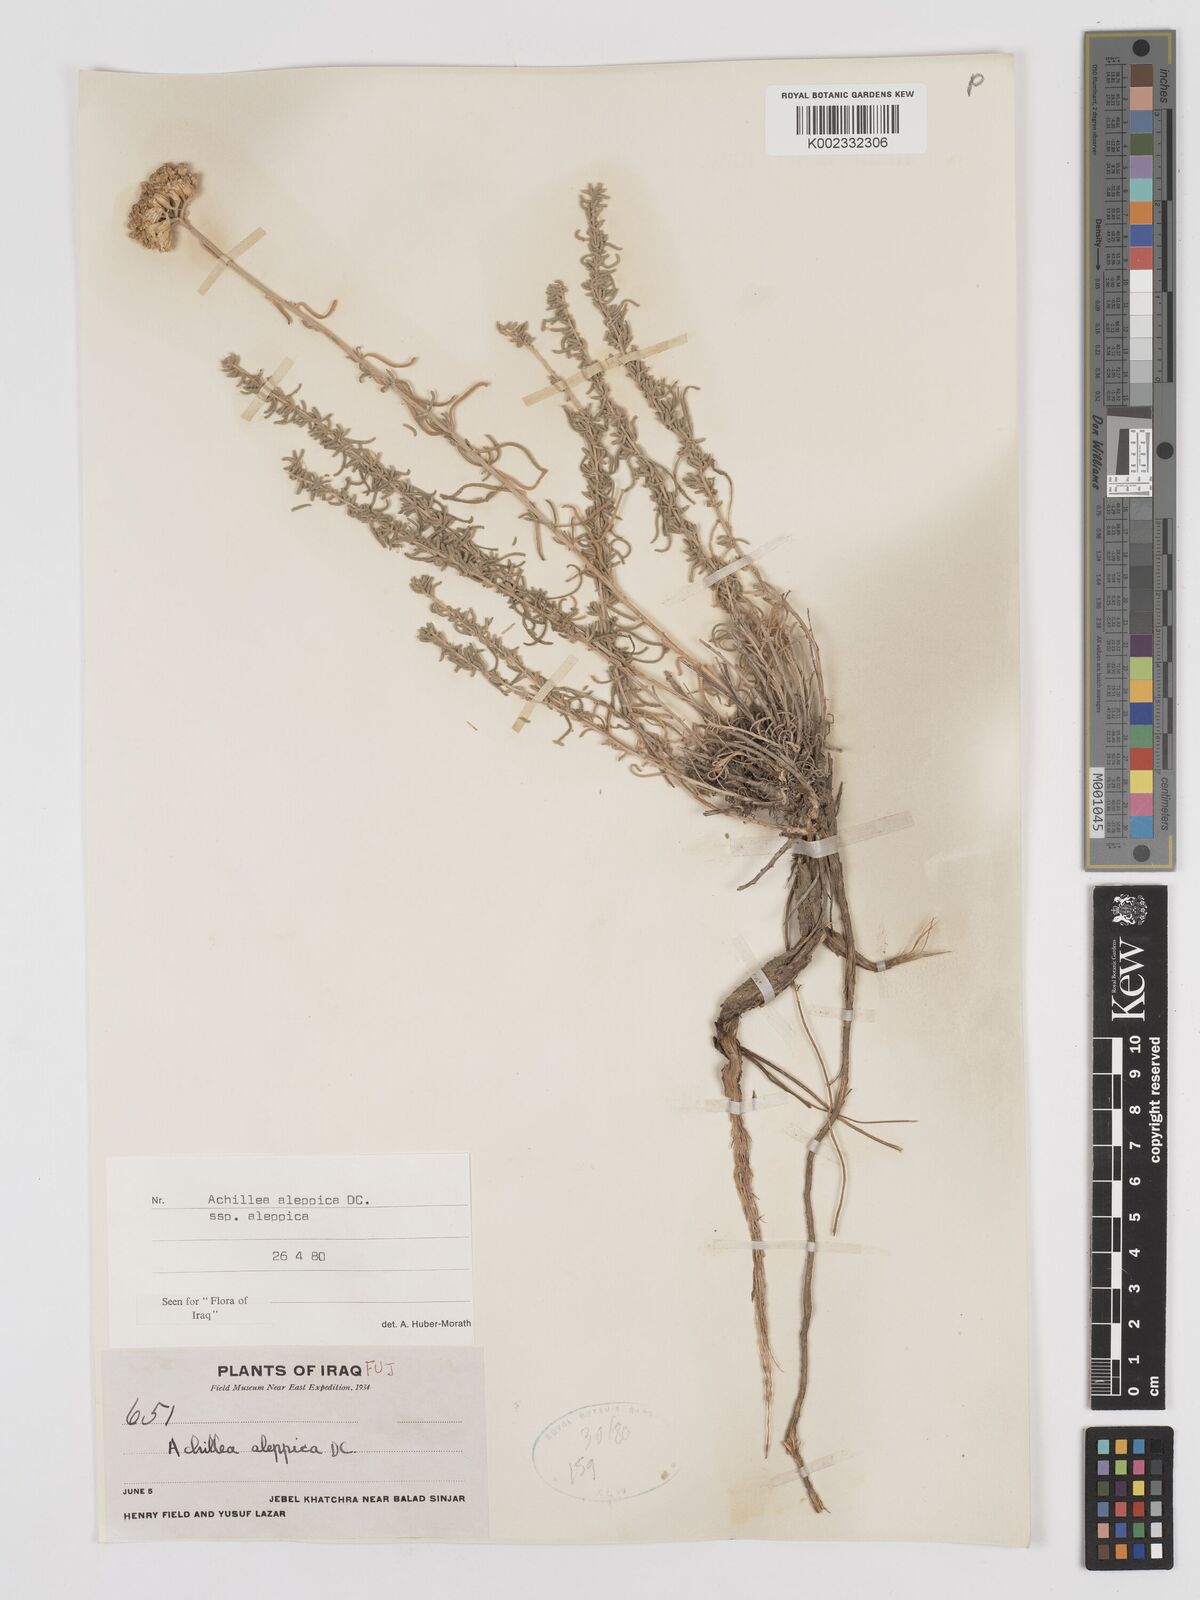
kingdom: Plantae
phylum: Tracheophyta
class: Magnoliopsida
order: Asterales
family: Asteraceae
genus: Achillea
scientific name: Achillea aleppica
